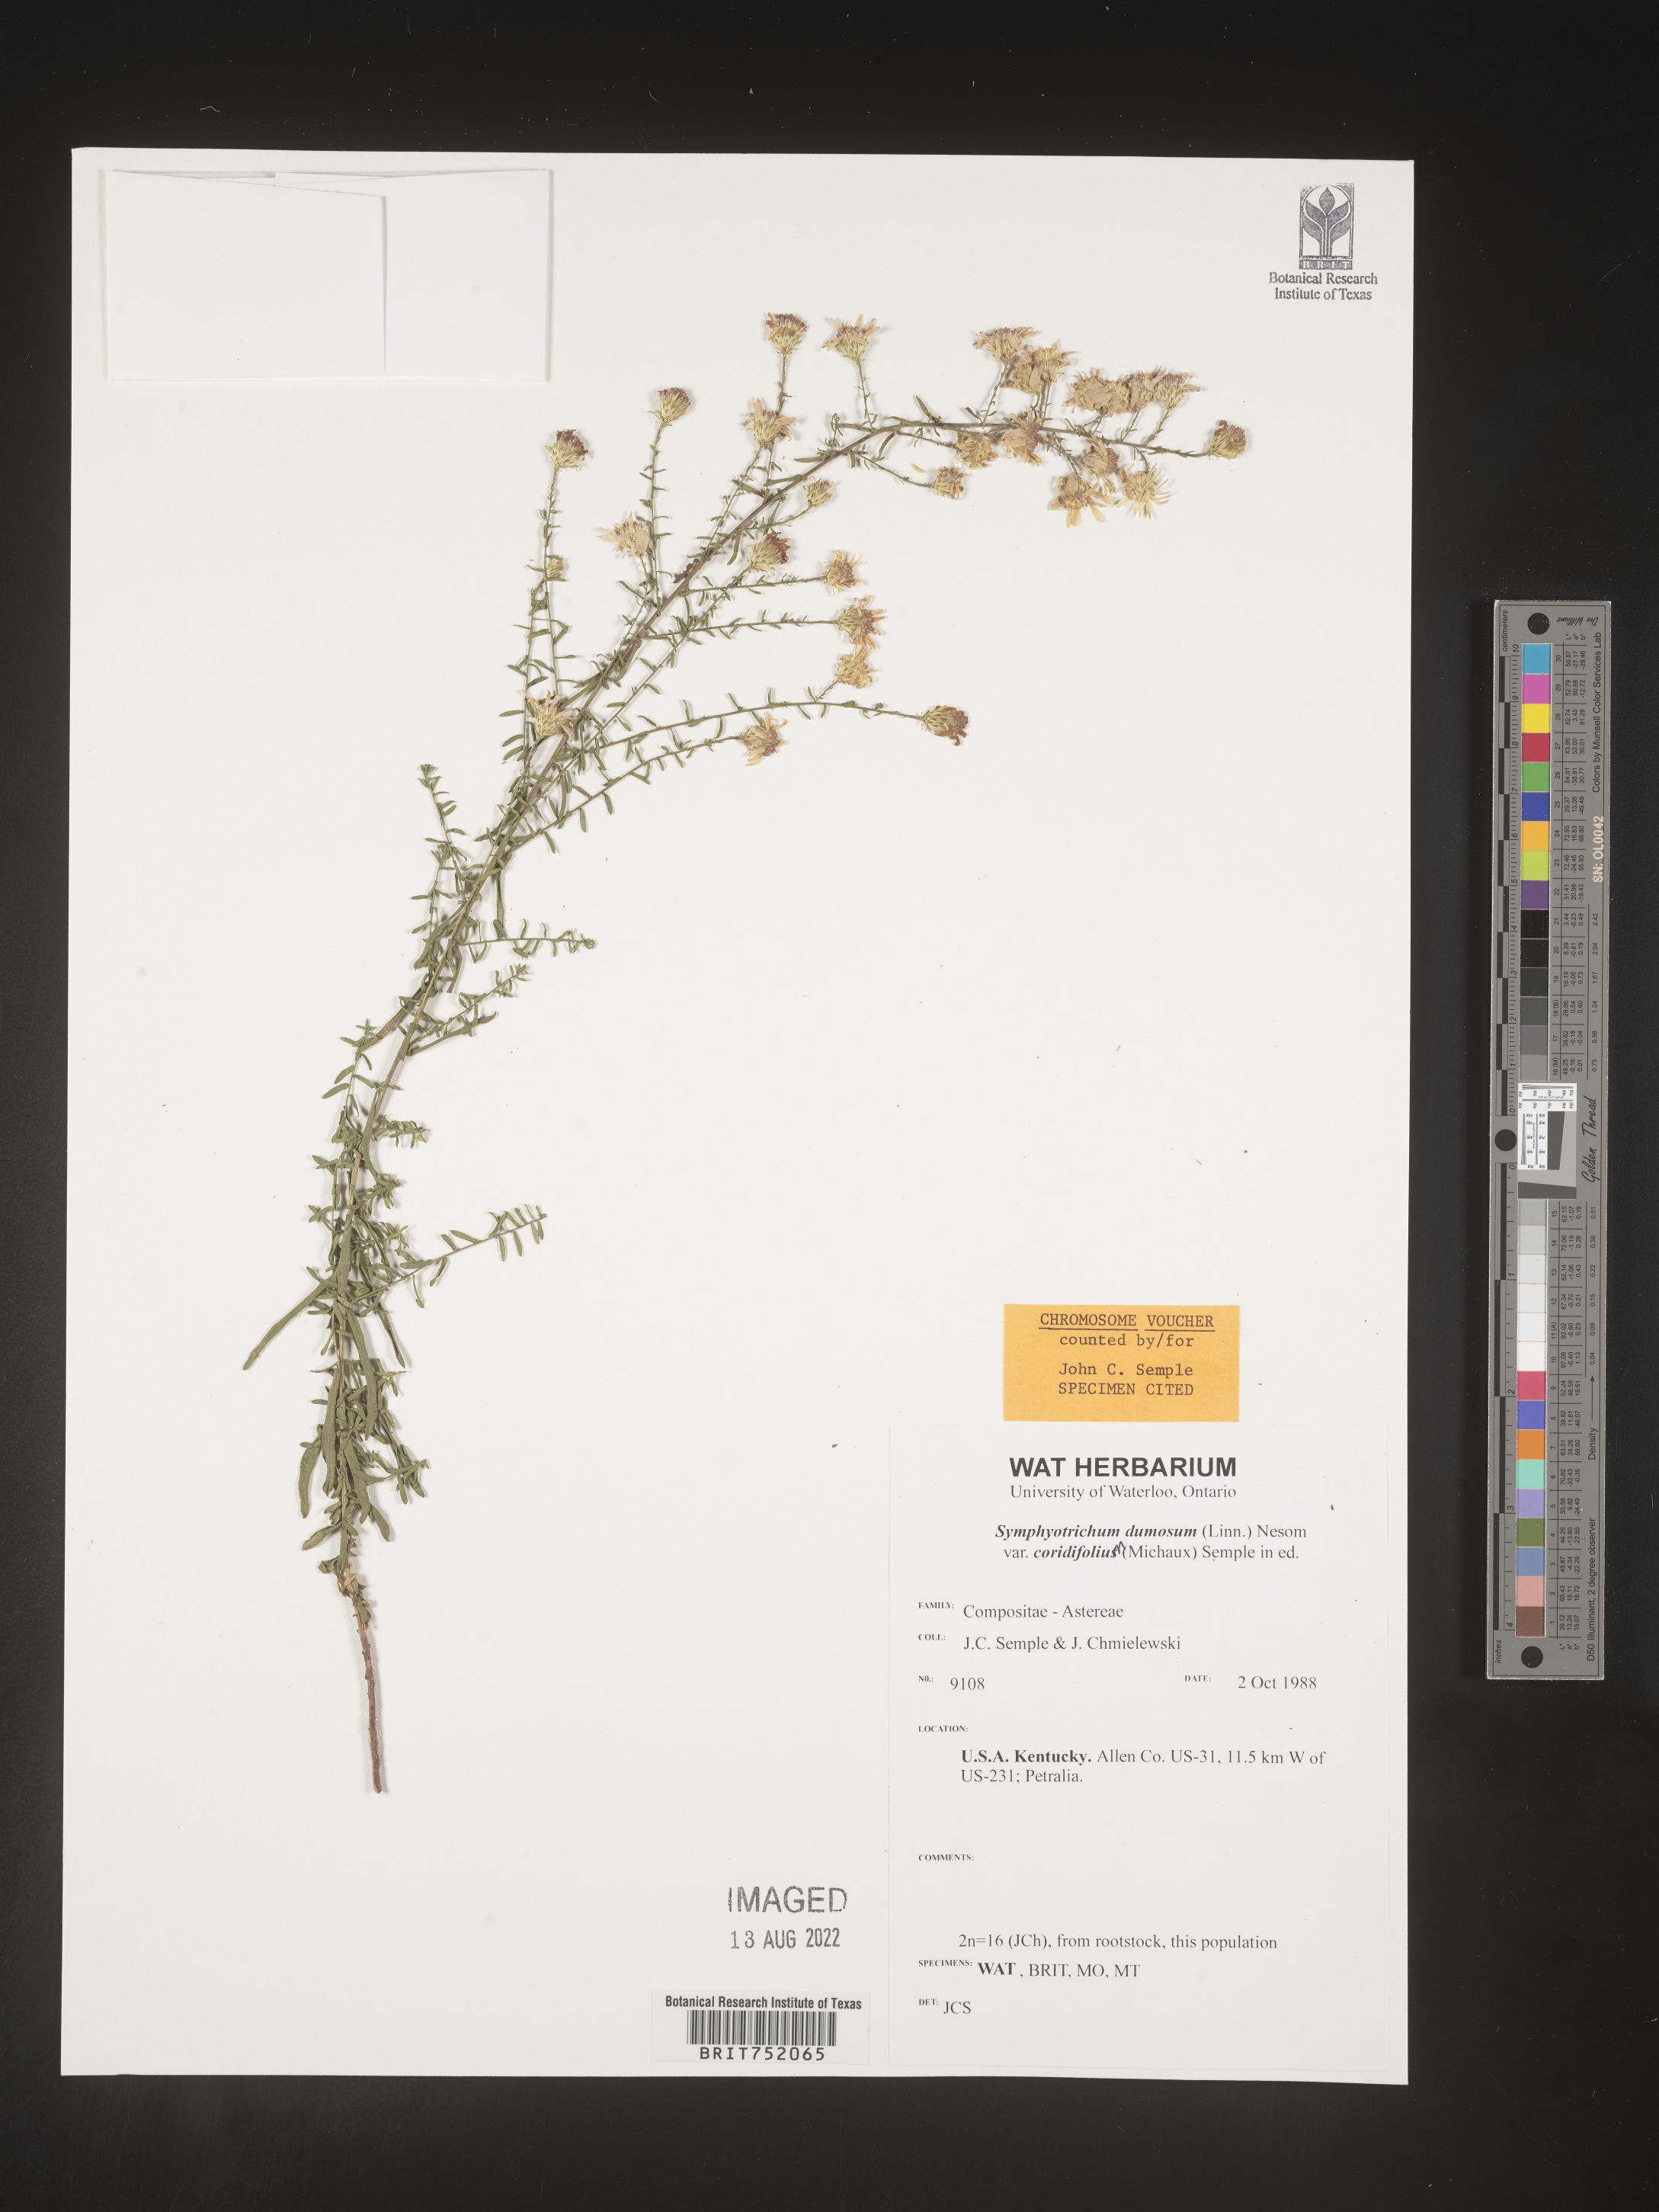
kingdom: Plantae
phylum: Tracheophyta
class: Magnoliopsida
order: Asterales
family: Asteraceae
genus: Symphyotrichum
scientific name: Symphyotrichum dumosum
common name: Bushy aster
